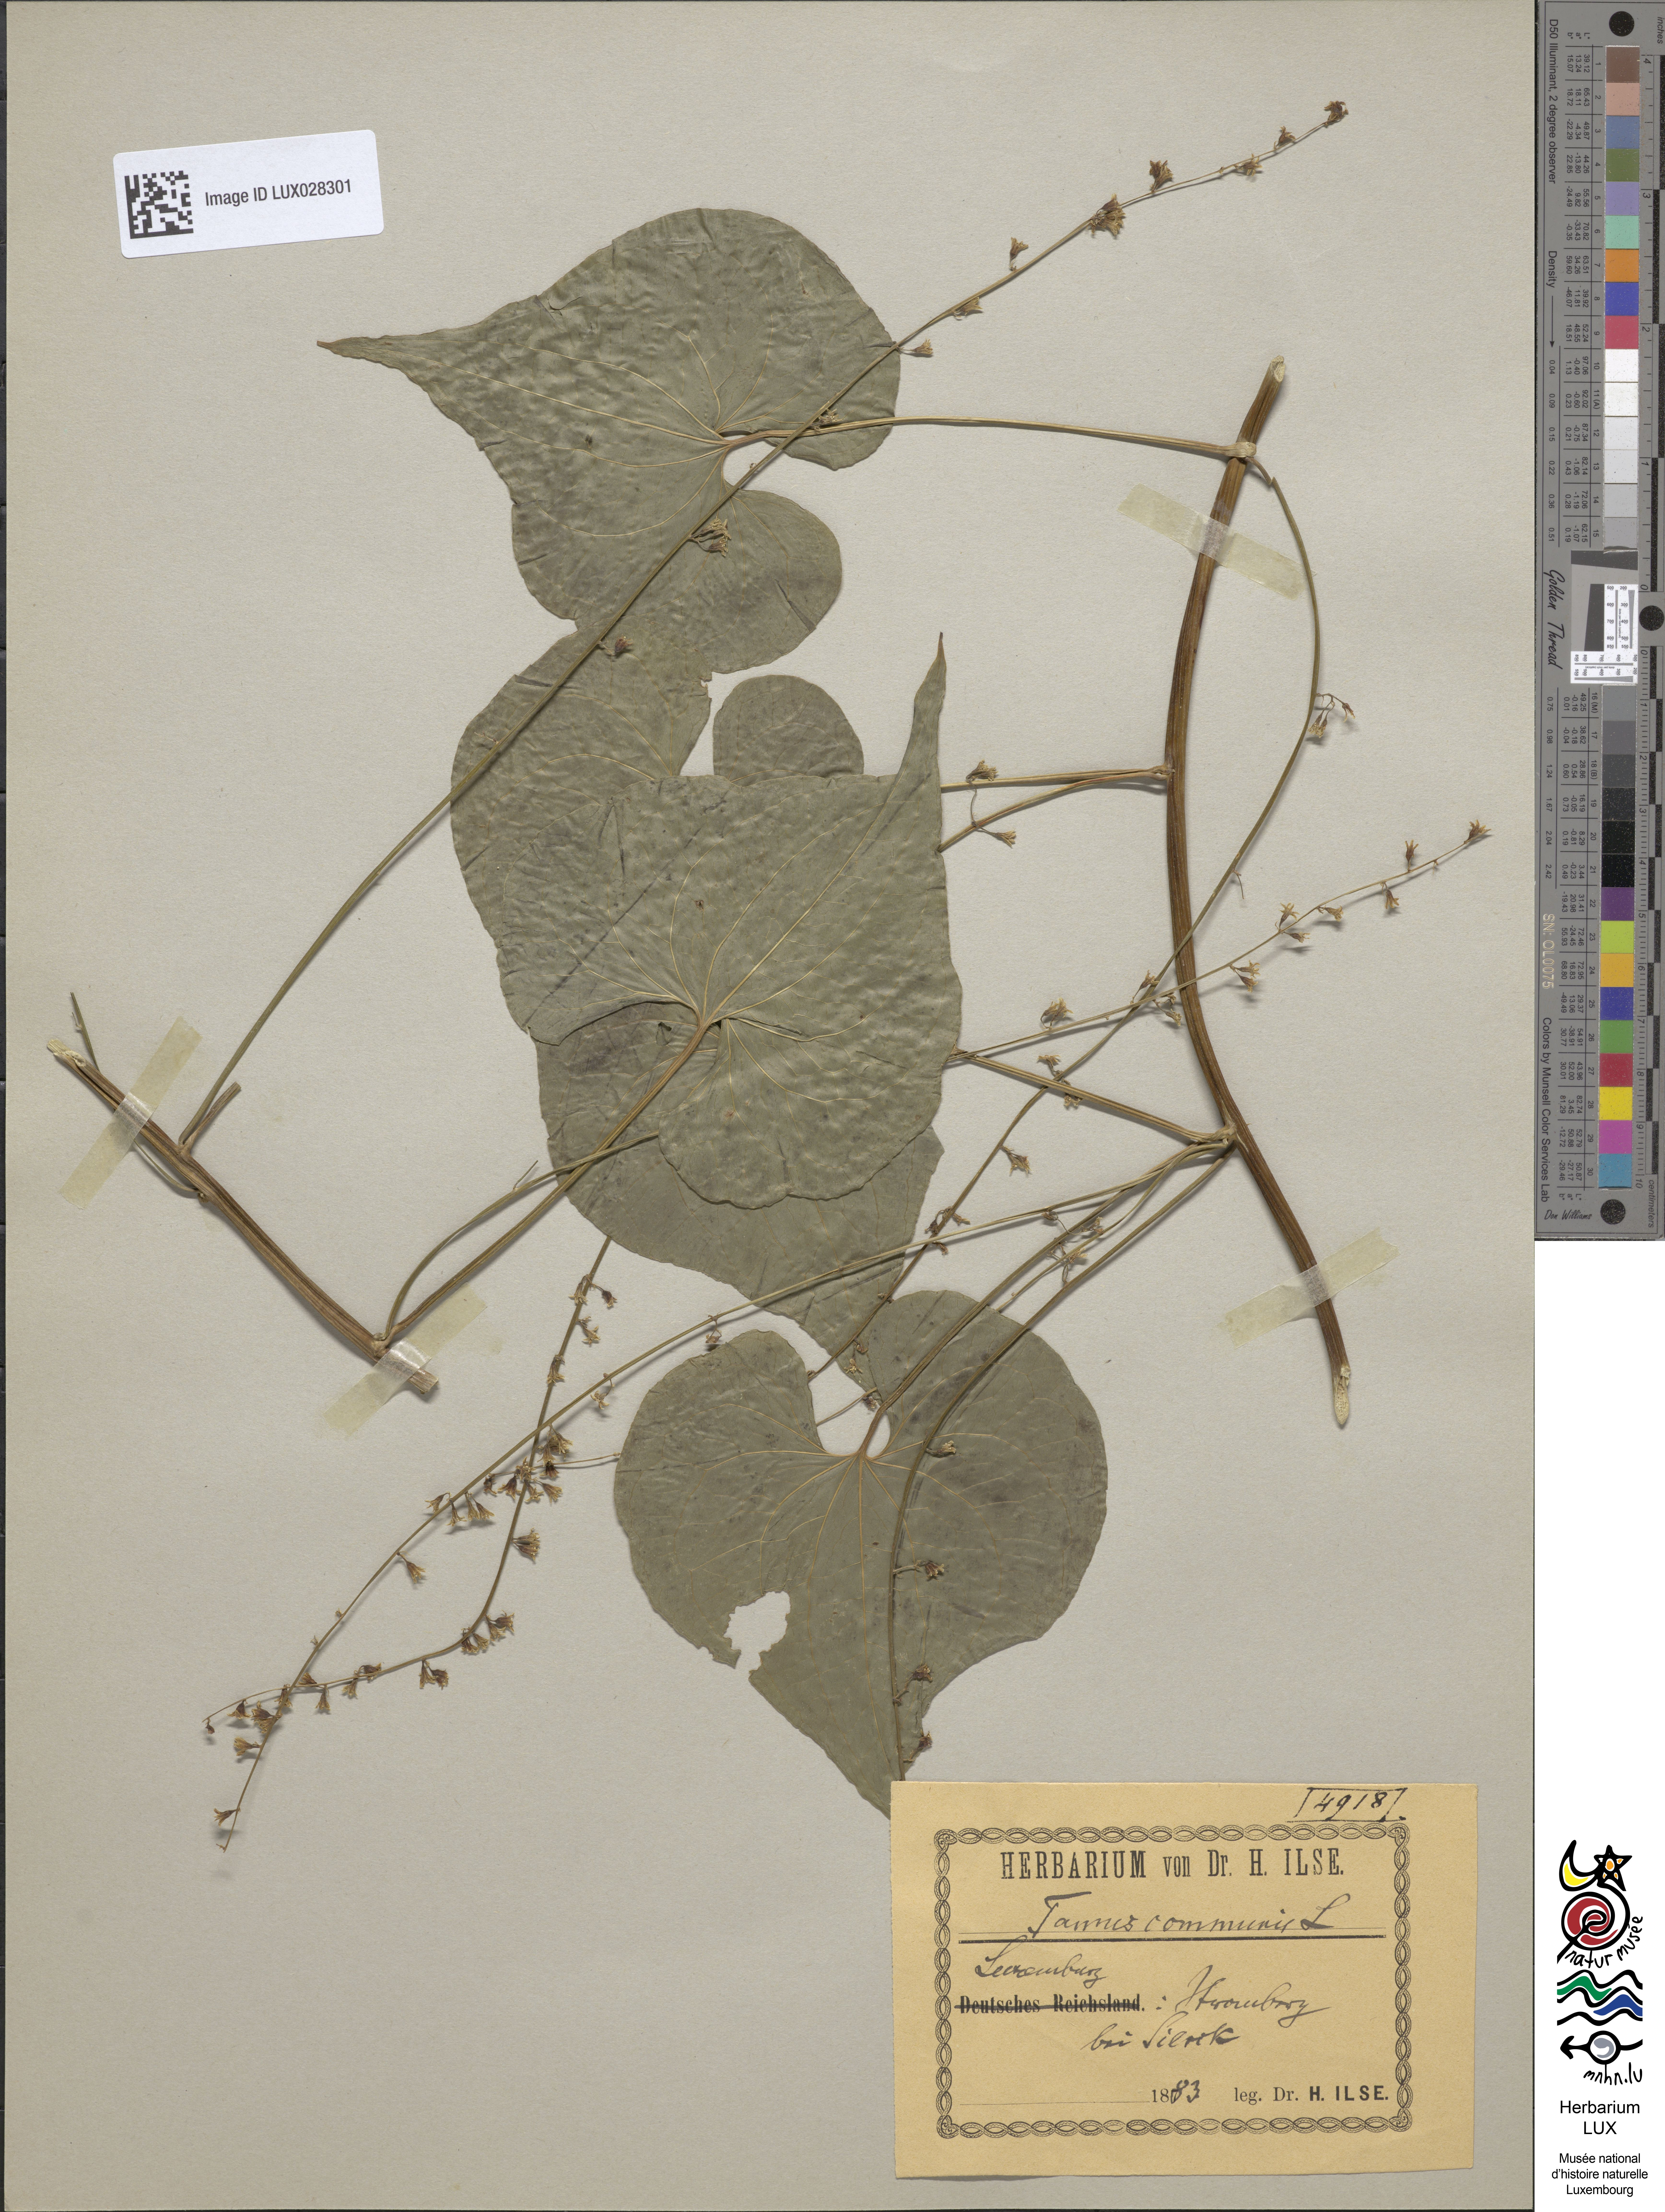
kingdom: Plantae
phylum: Tracheophyta
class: Liliopsida
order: Dioscoreales
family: Dioscoreaceae
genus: Dioscorea
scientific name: Dioscorea communis
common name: Black-bindweed
